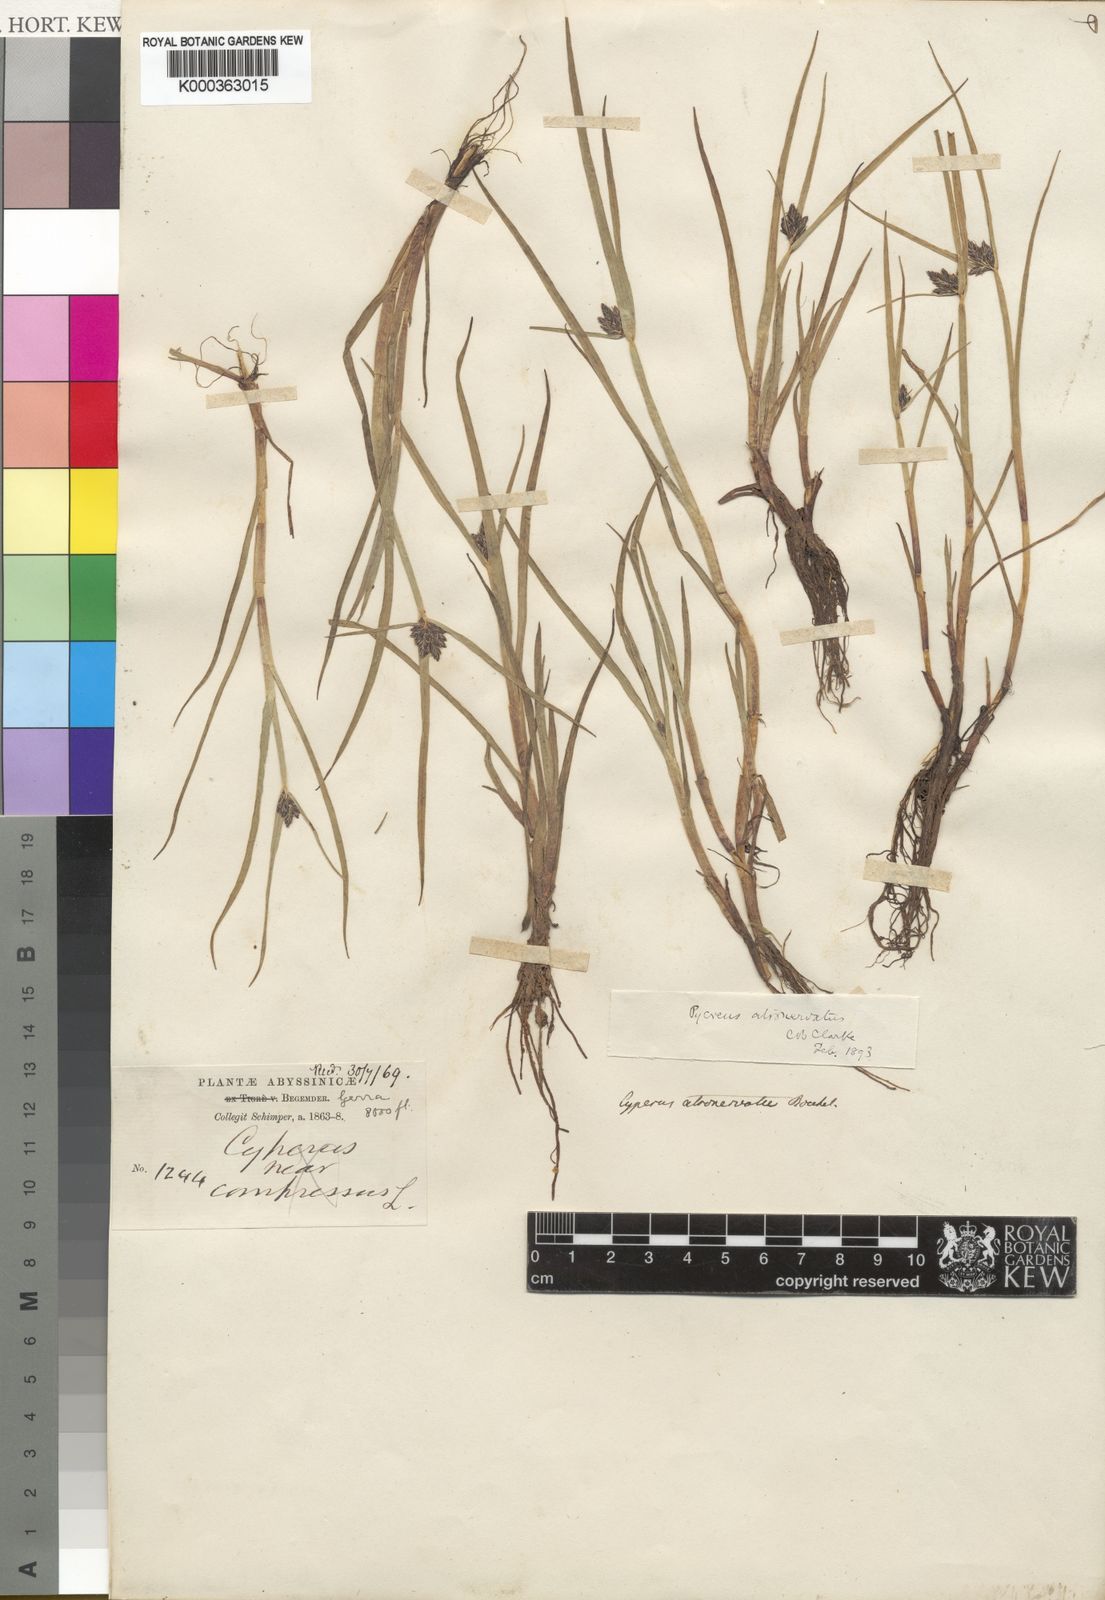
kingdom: Plantae
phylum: Tracheophyta
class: Liliopsida
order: Poales
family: Cyperaceae
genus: Cyperus
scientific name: Cyperus atronervatus
